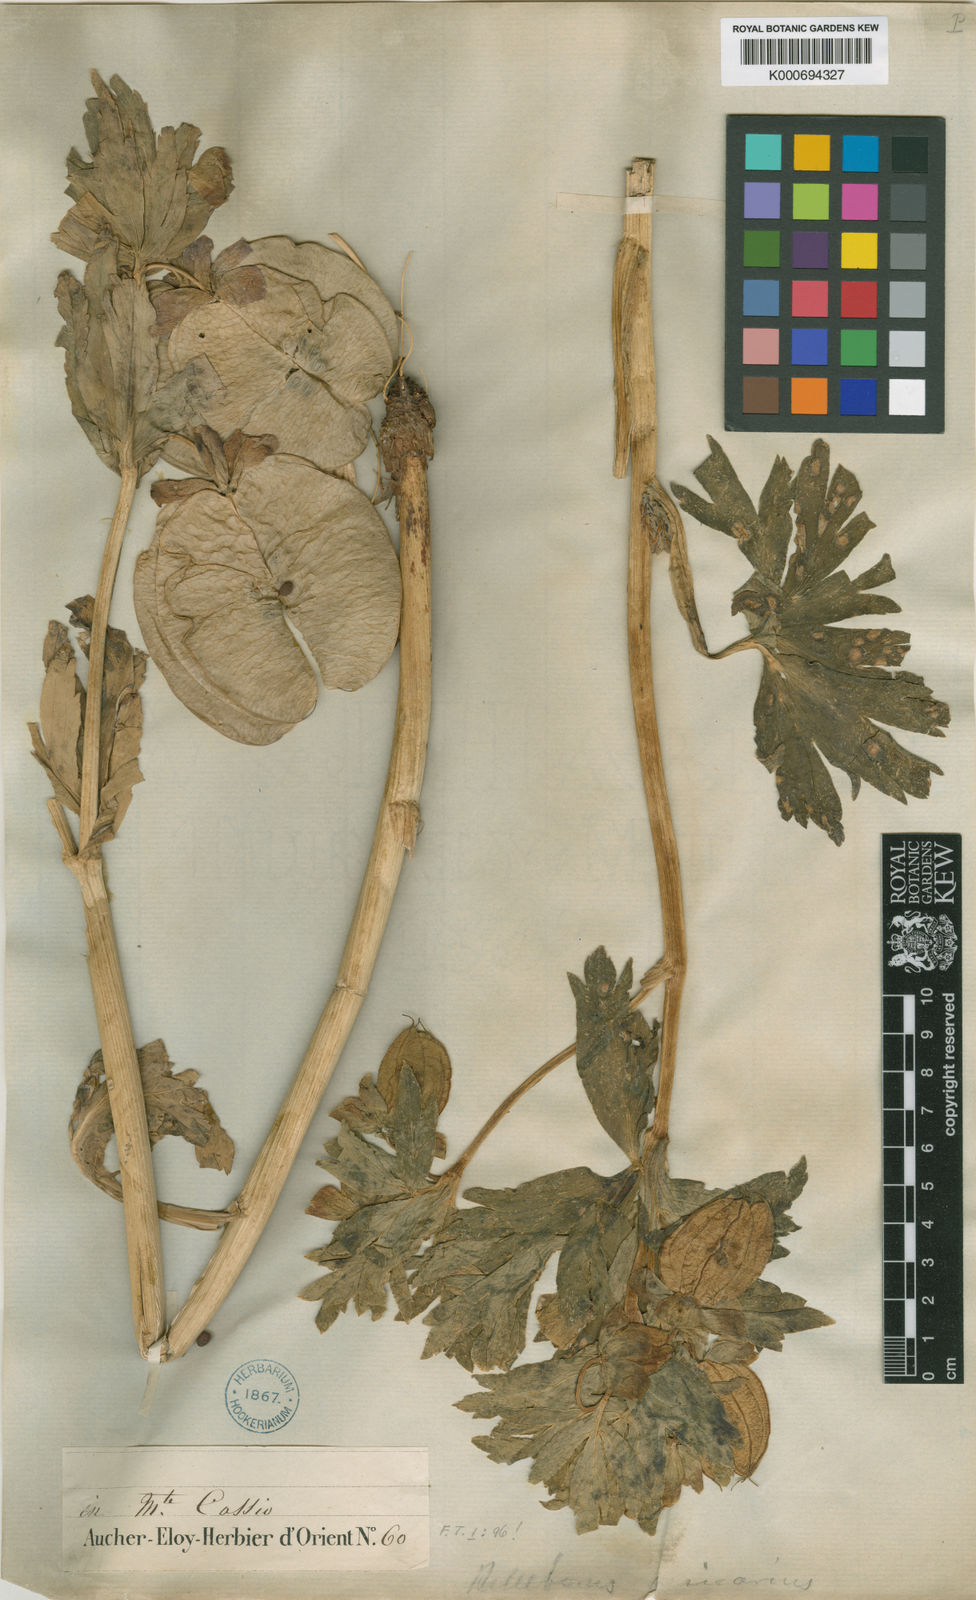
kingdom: Plantae
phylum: Tracheophyta
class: Magnoliopsida
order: Ranunculales
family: Ranunculaceae
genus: Helleborus
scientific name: Helleborus vesicarius
